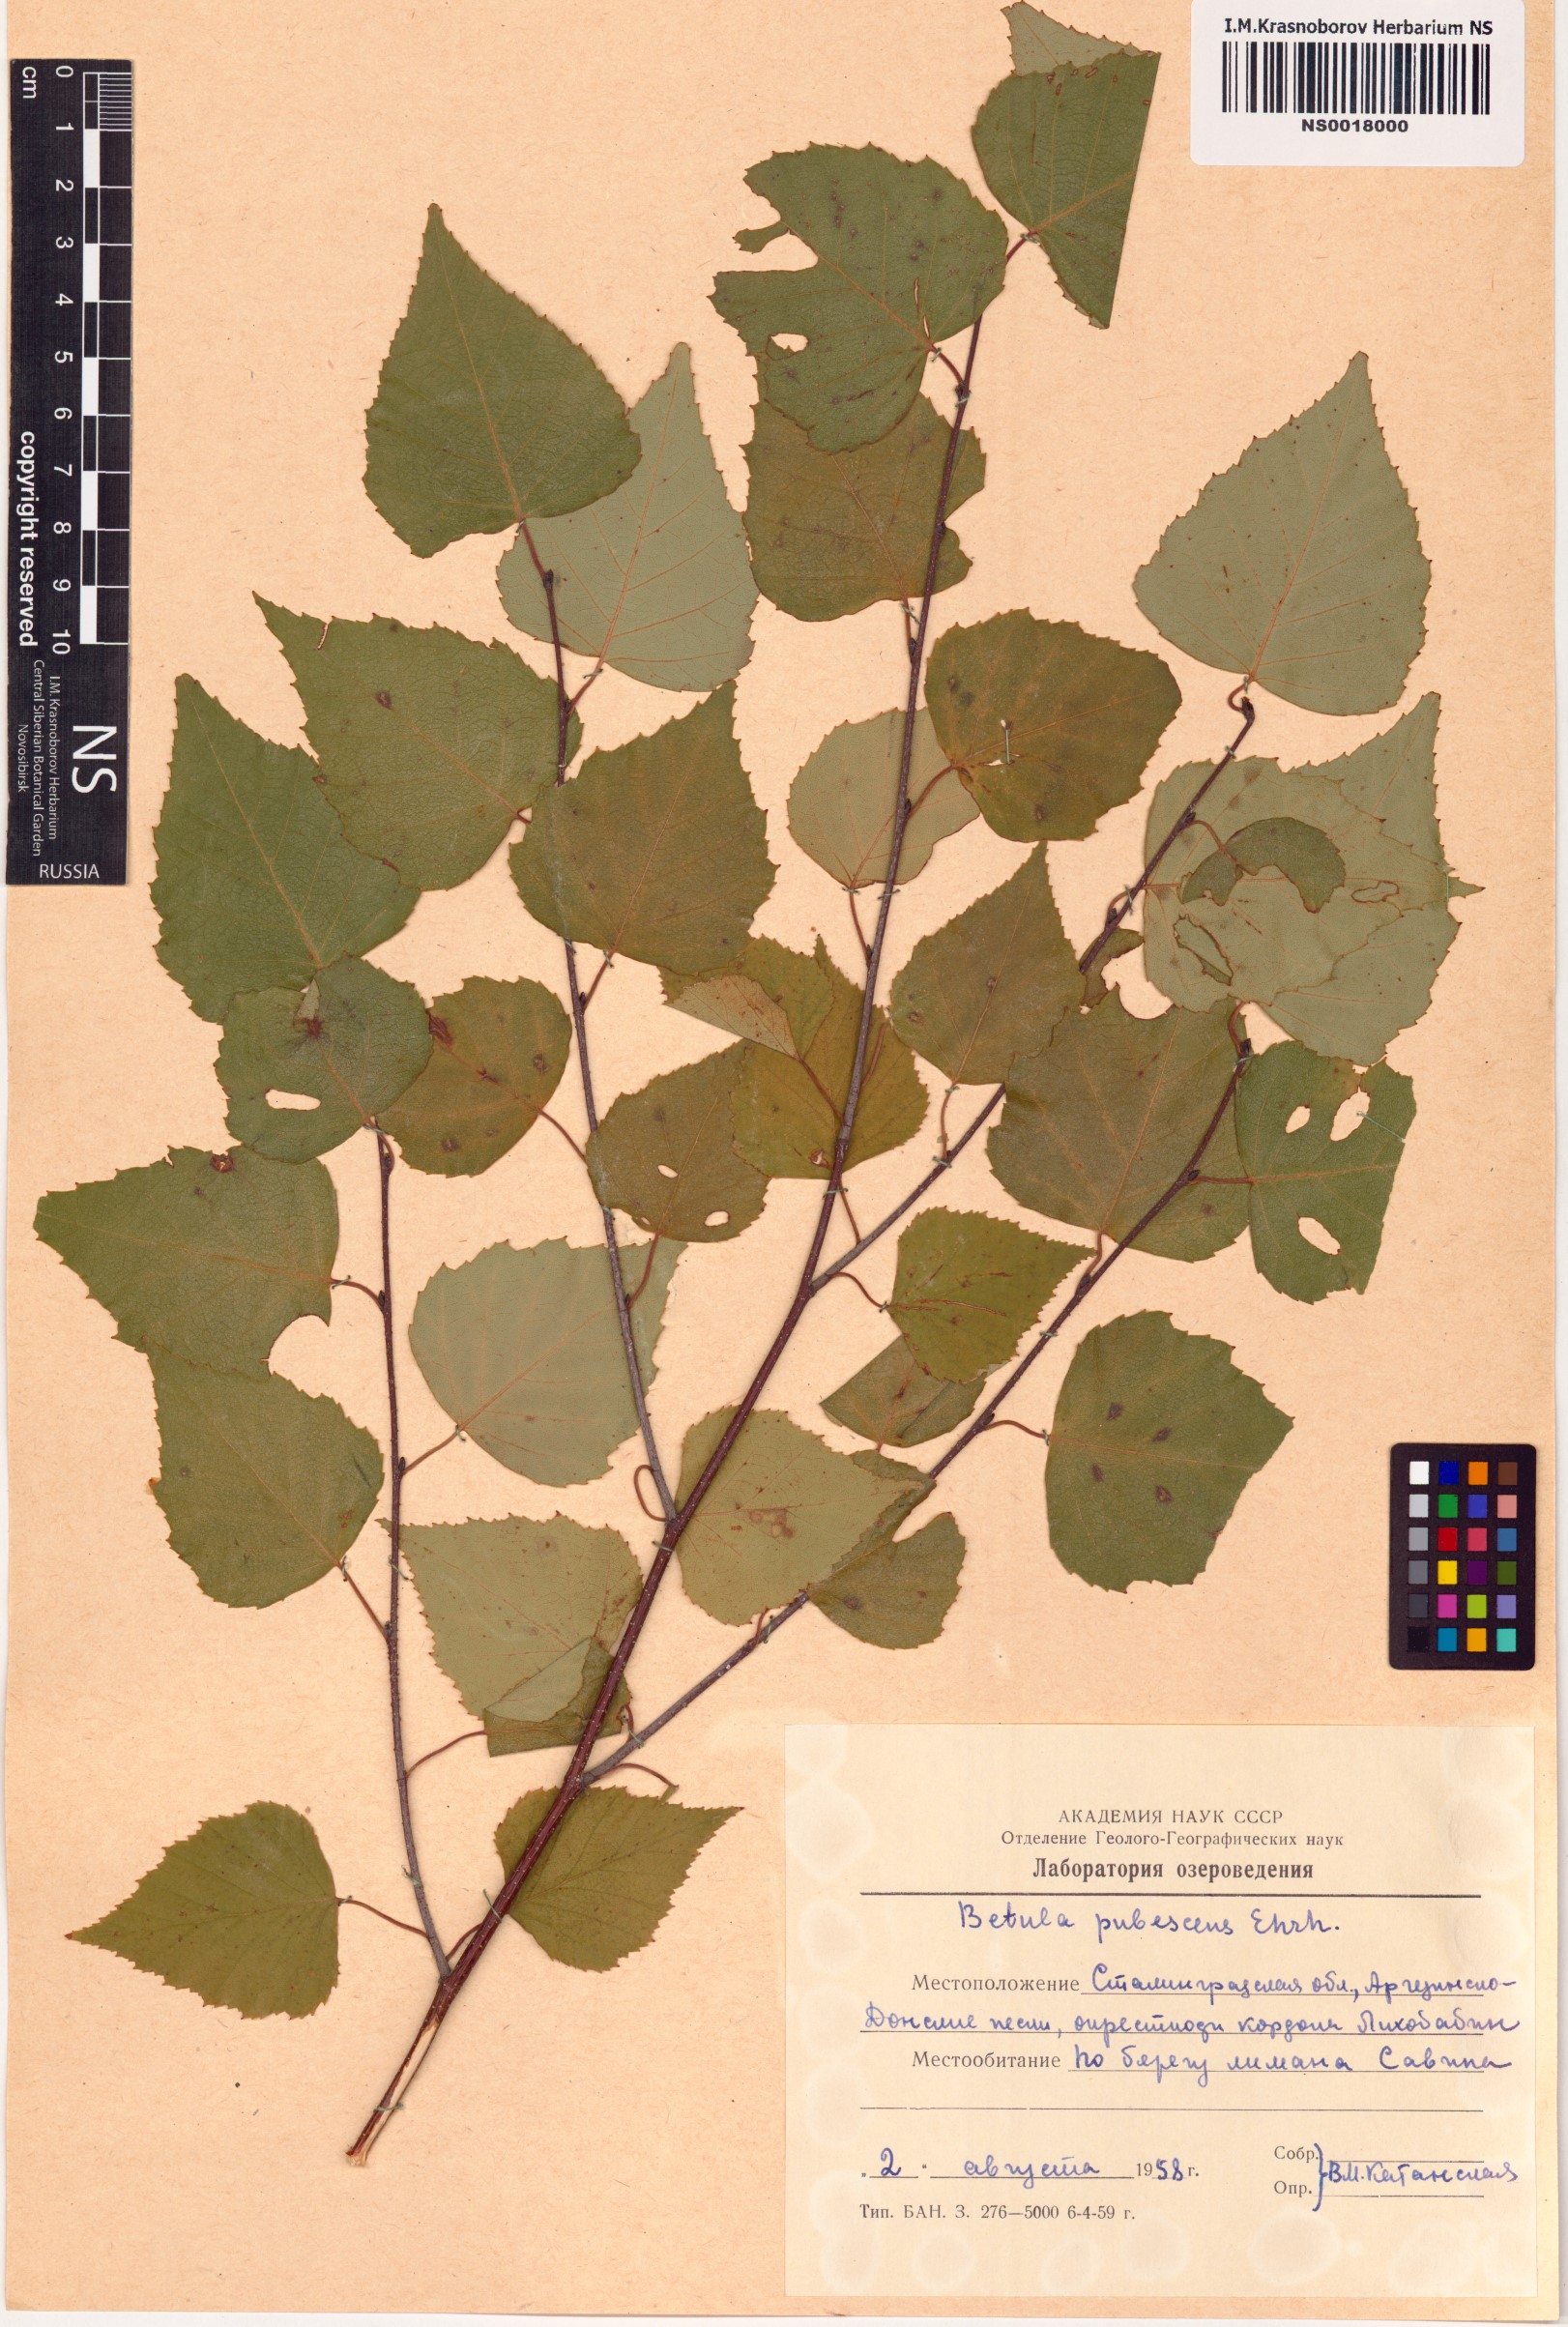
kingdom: Plantae
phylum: Tracheophyta
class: Magnoliopsida
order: Fagales
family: Betulaceae
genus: Betula
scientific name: Betula pubescens
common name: Downy birch
